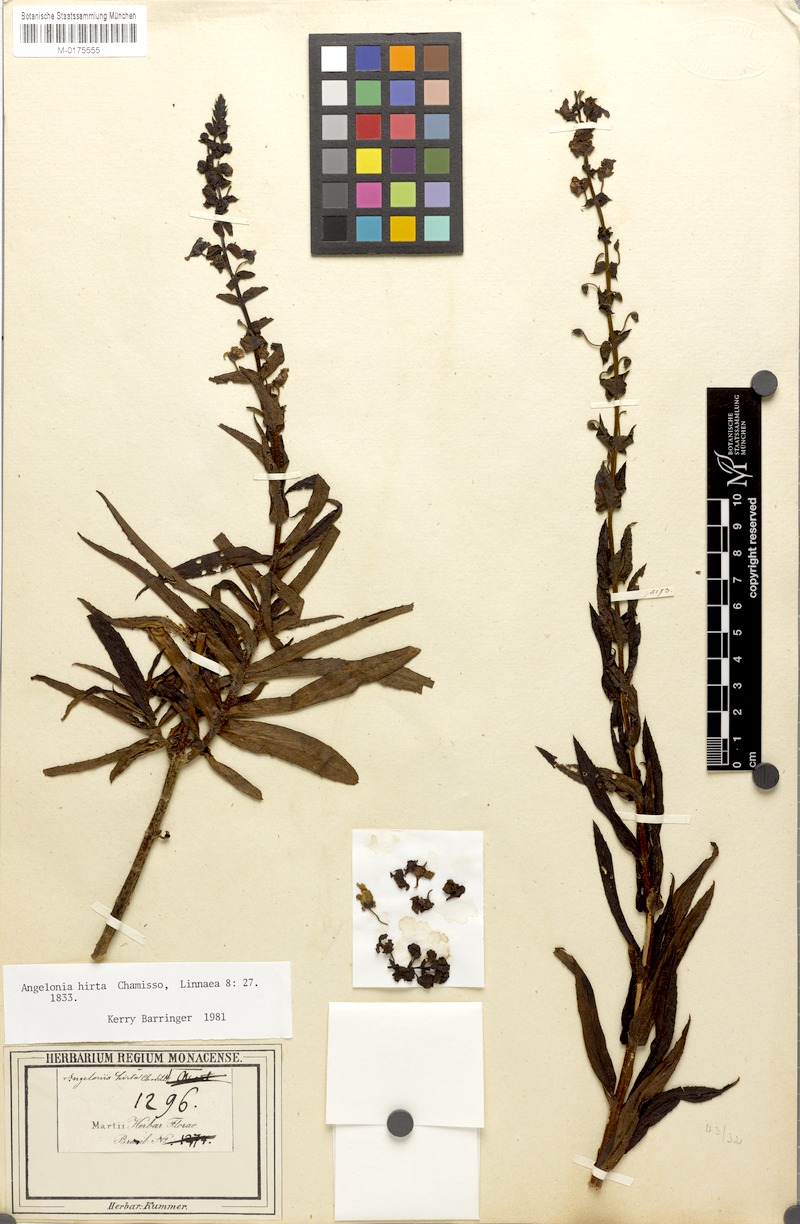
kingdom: Plantae
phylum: Tracheophyta
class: Magnoliopsida
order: Lamiales
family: Plantaginaceae
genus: Angelonia
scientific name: Angelonia salicariifolia
